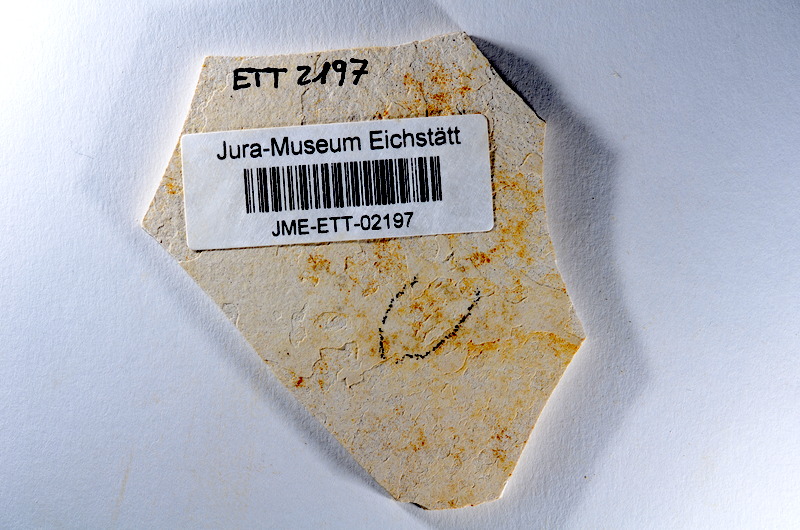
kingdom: Animalia
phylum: Chordata
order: Salmoniformes
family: Orthogonikleithridae
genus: Orthogonikleithrus
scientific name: Orthogonikleithrus hoelli
